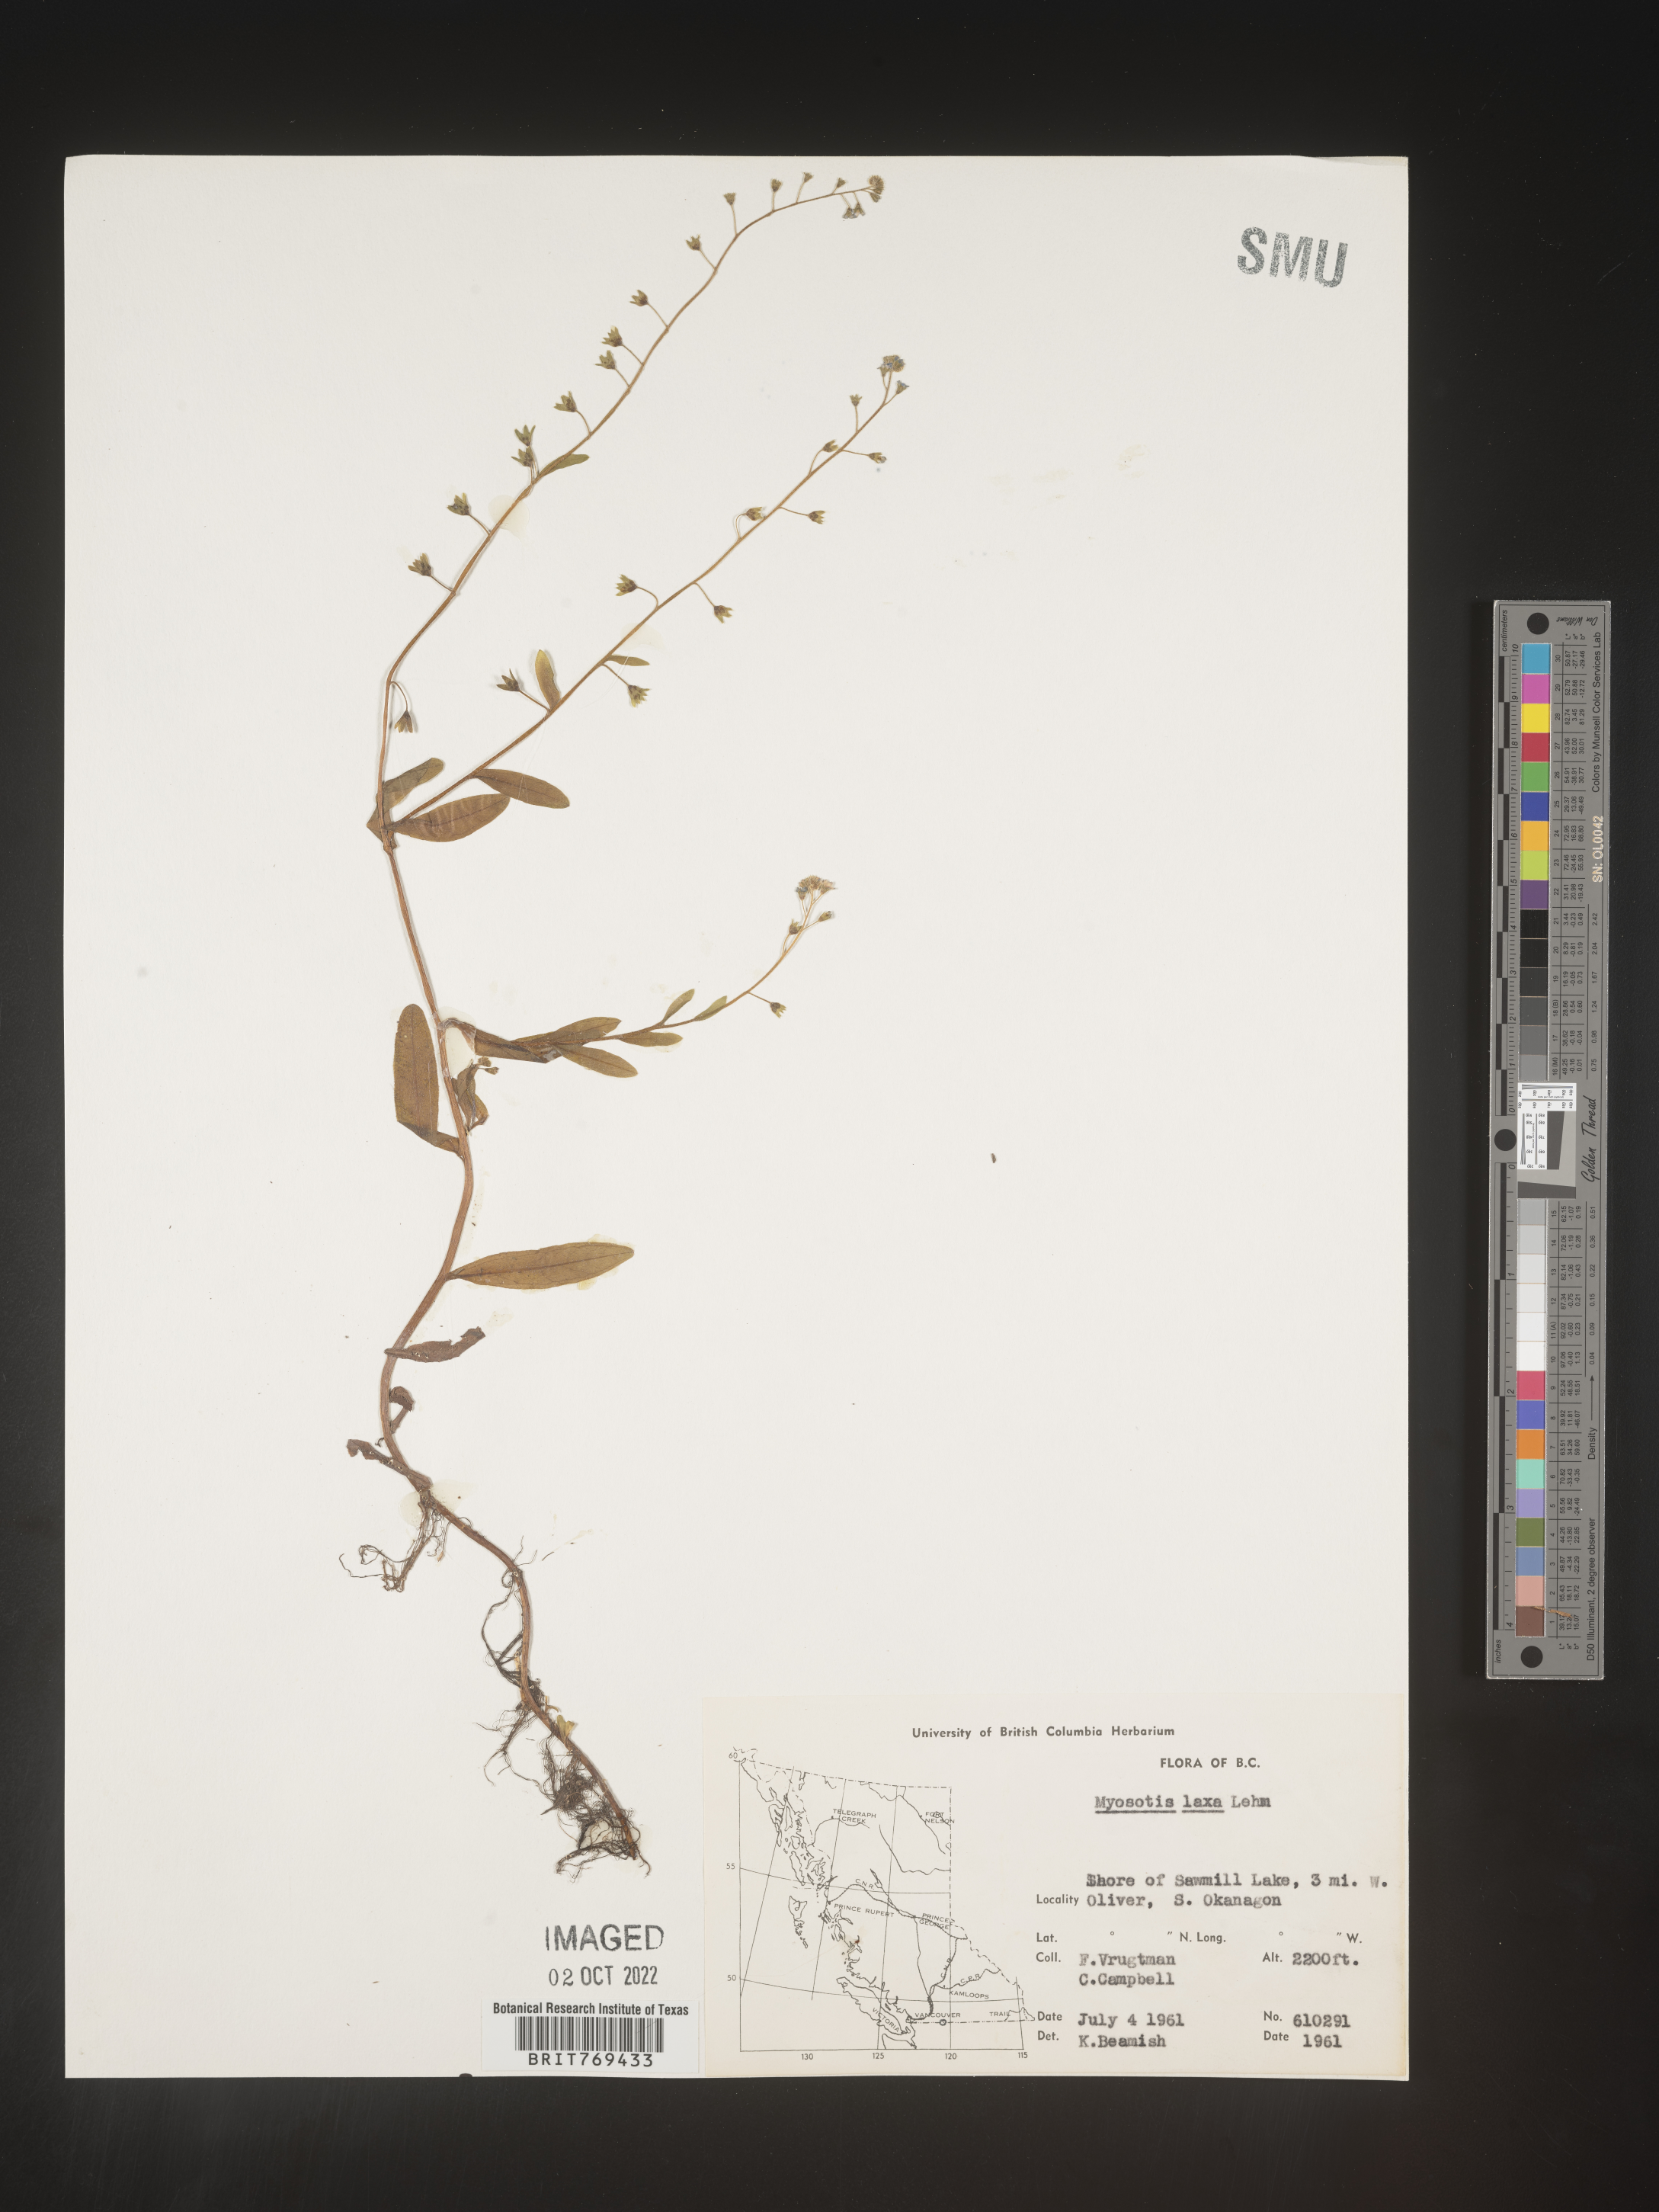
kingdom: Plantae
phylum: Tracheophyta
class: Magnoliopsida
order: Boraginales
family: Boraginaceae
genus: Myosotis
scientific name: Myosotis
